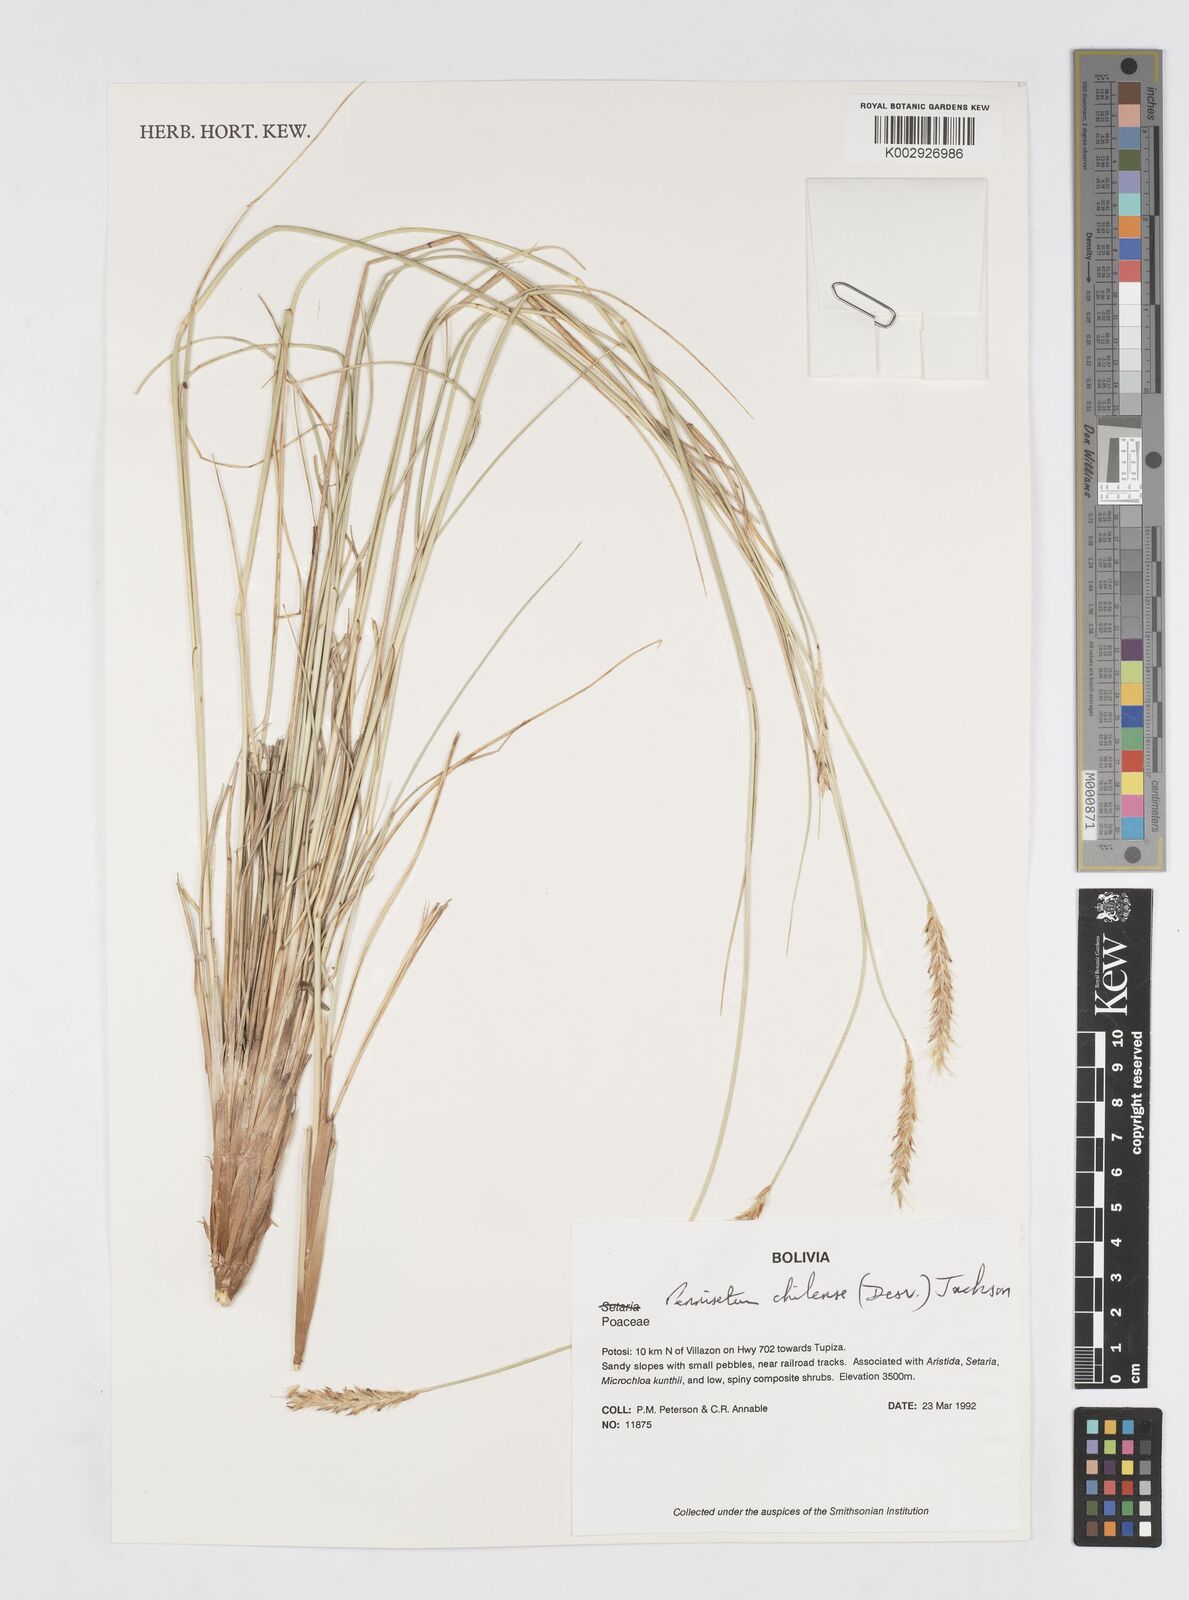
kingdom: Plantae
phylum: Tracheophyta
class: Liliopsida
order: Poales
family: Poaceae
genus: Cenchrus
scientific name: Cenchrus chilensis
